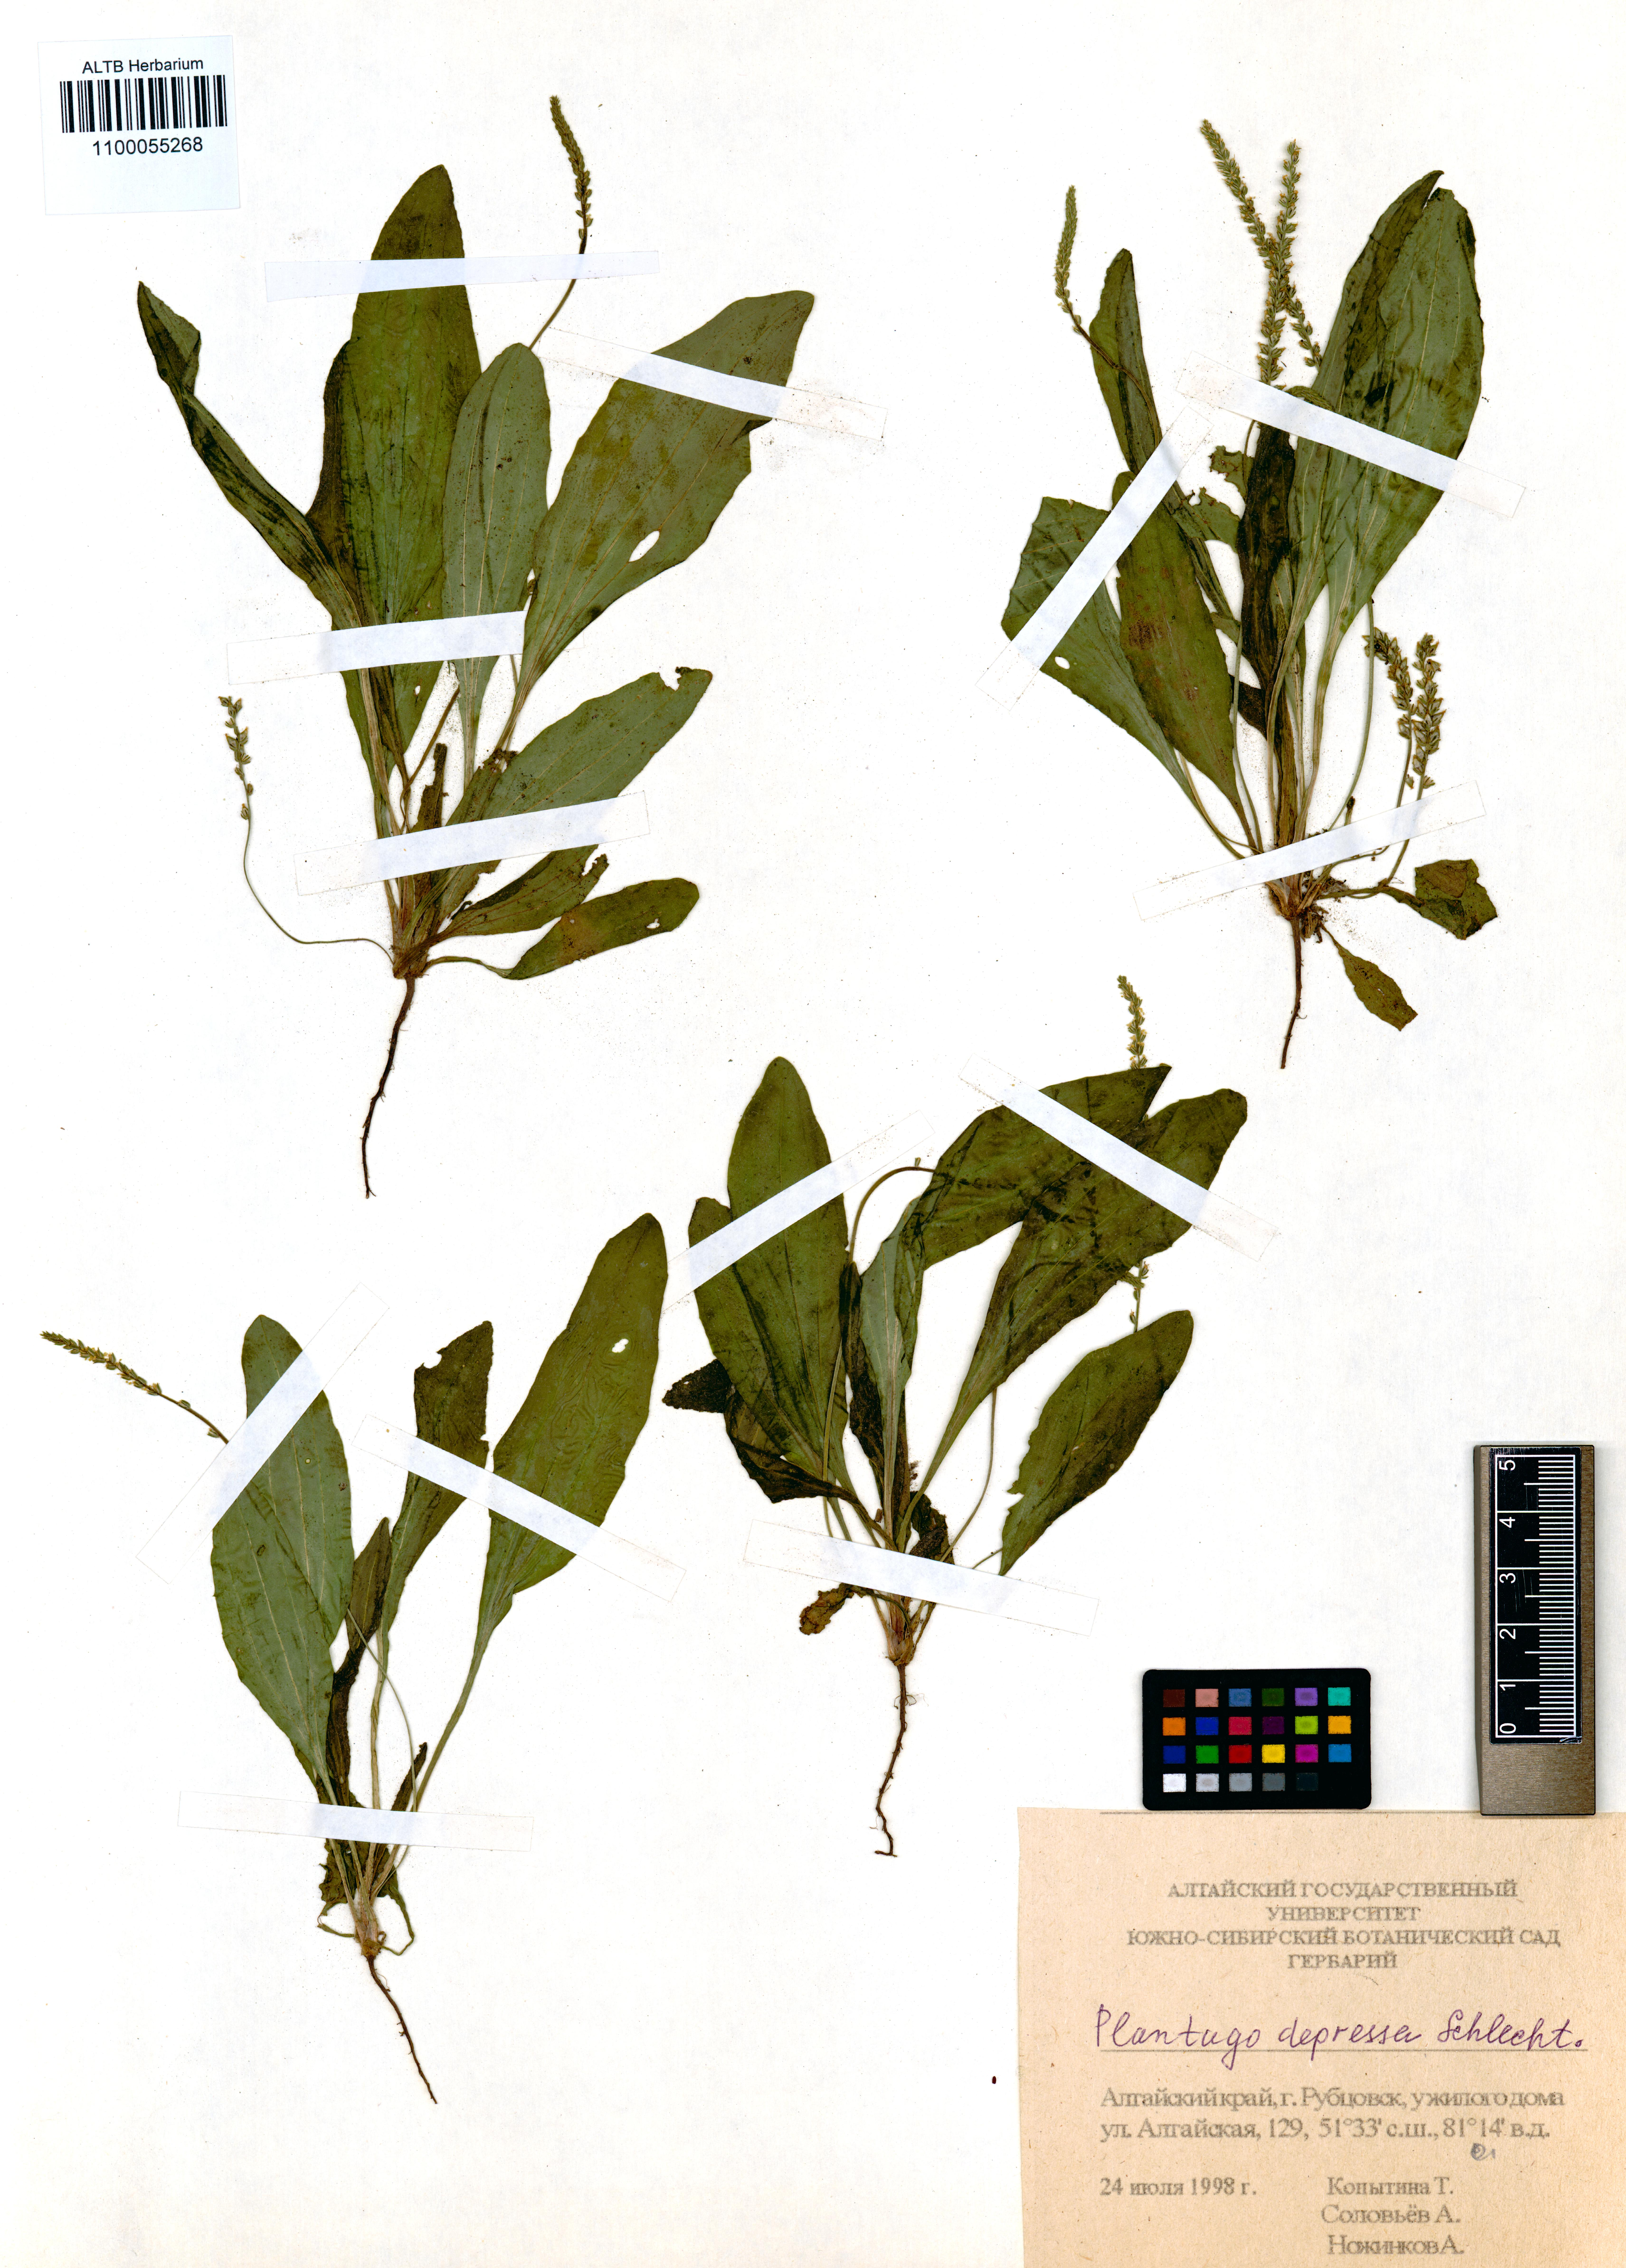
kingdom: Plantae
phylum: Tracheophyta
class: Magnoliopsida
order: Lamiales
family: Plantaginaceae
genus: Plantago
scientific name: Plantago depressa
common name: Depressed plantain
